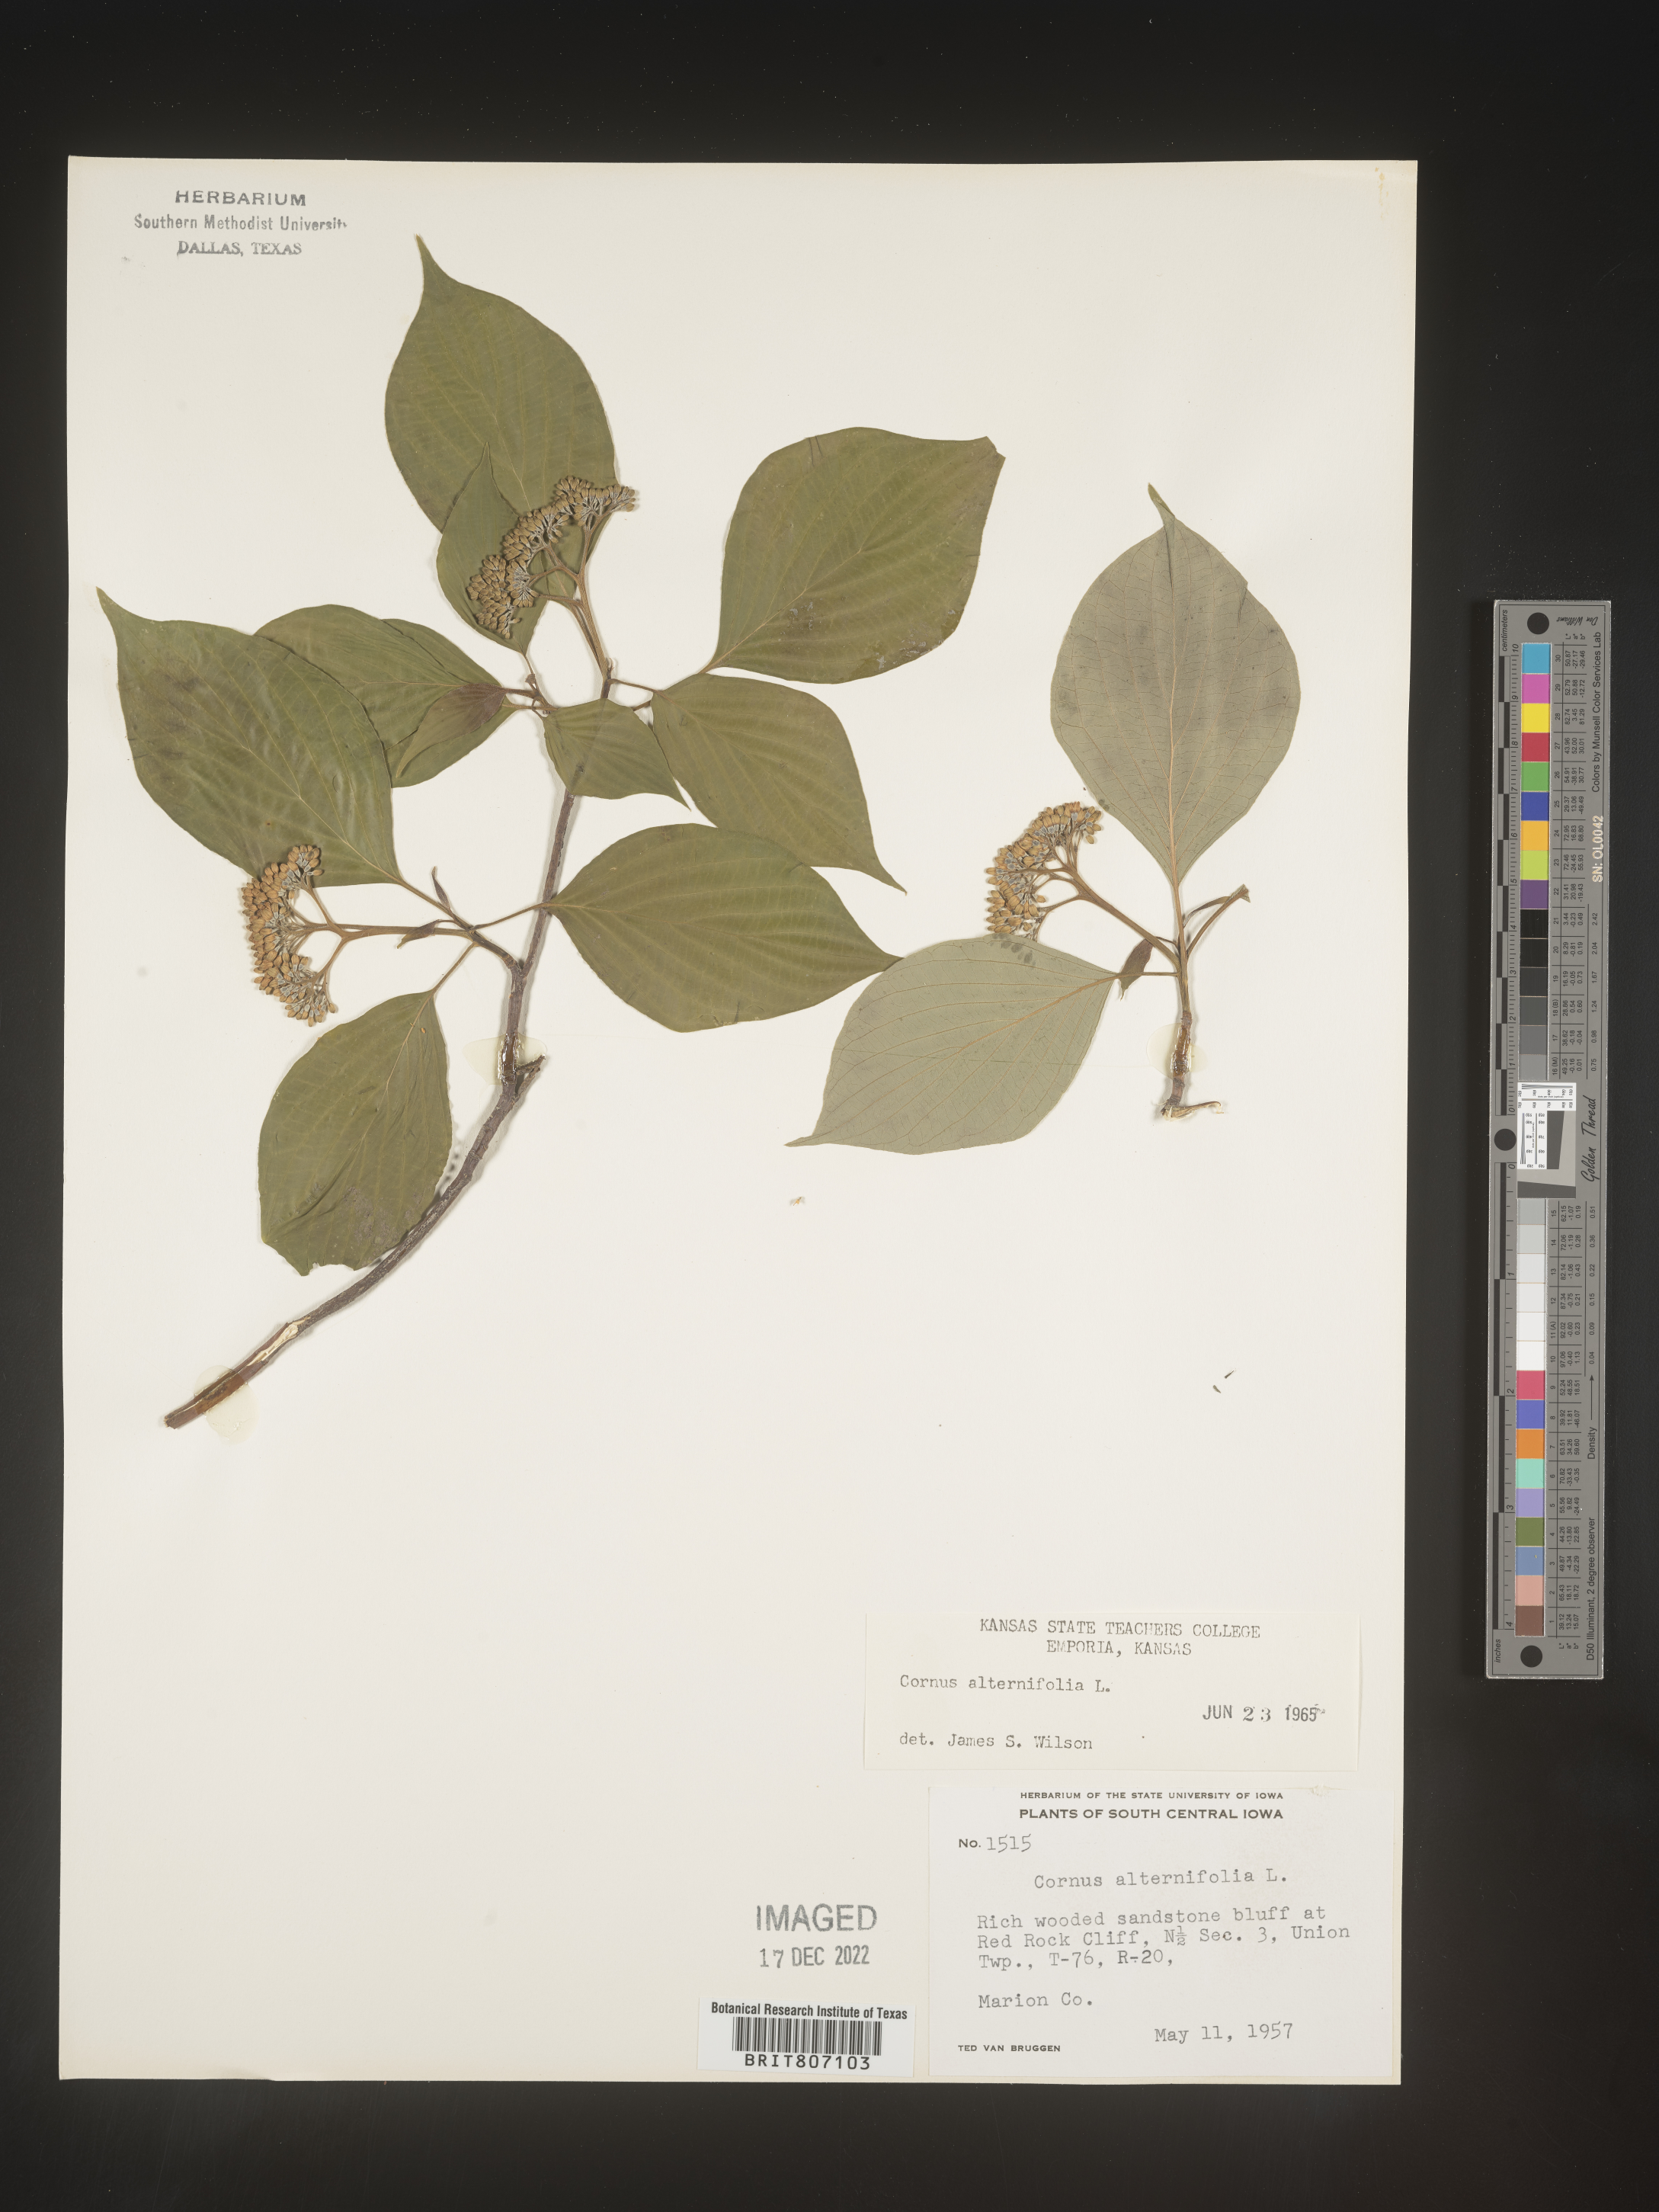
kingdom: Plantae
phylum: Tracheophyta
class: Magnoliopsida
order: Cornales
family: Cornaceae
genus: Cornus
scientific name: Cornus alternifolia
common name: Pagoda dogwood
